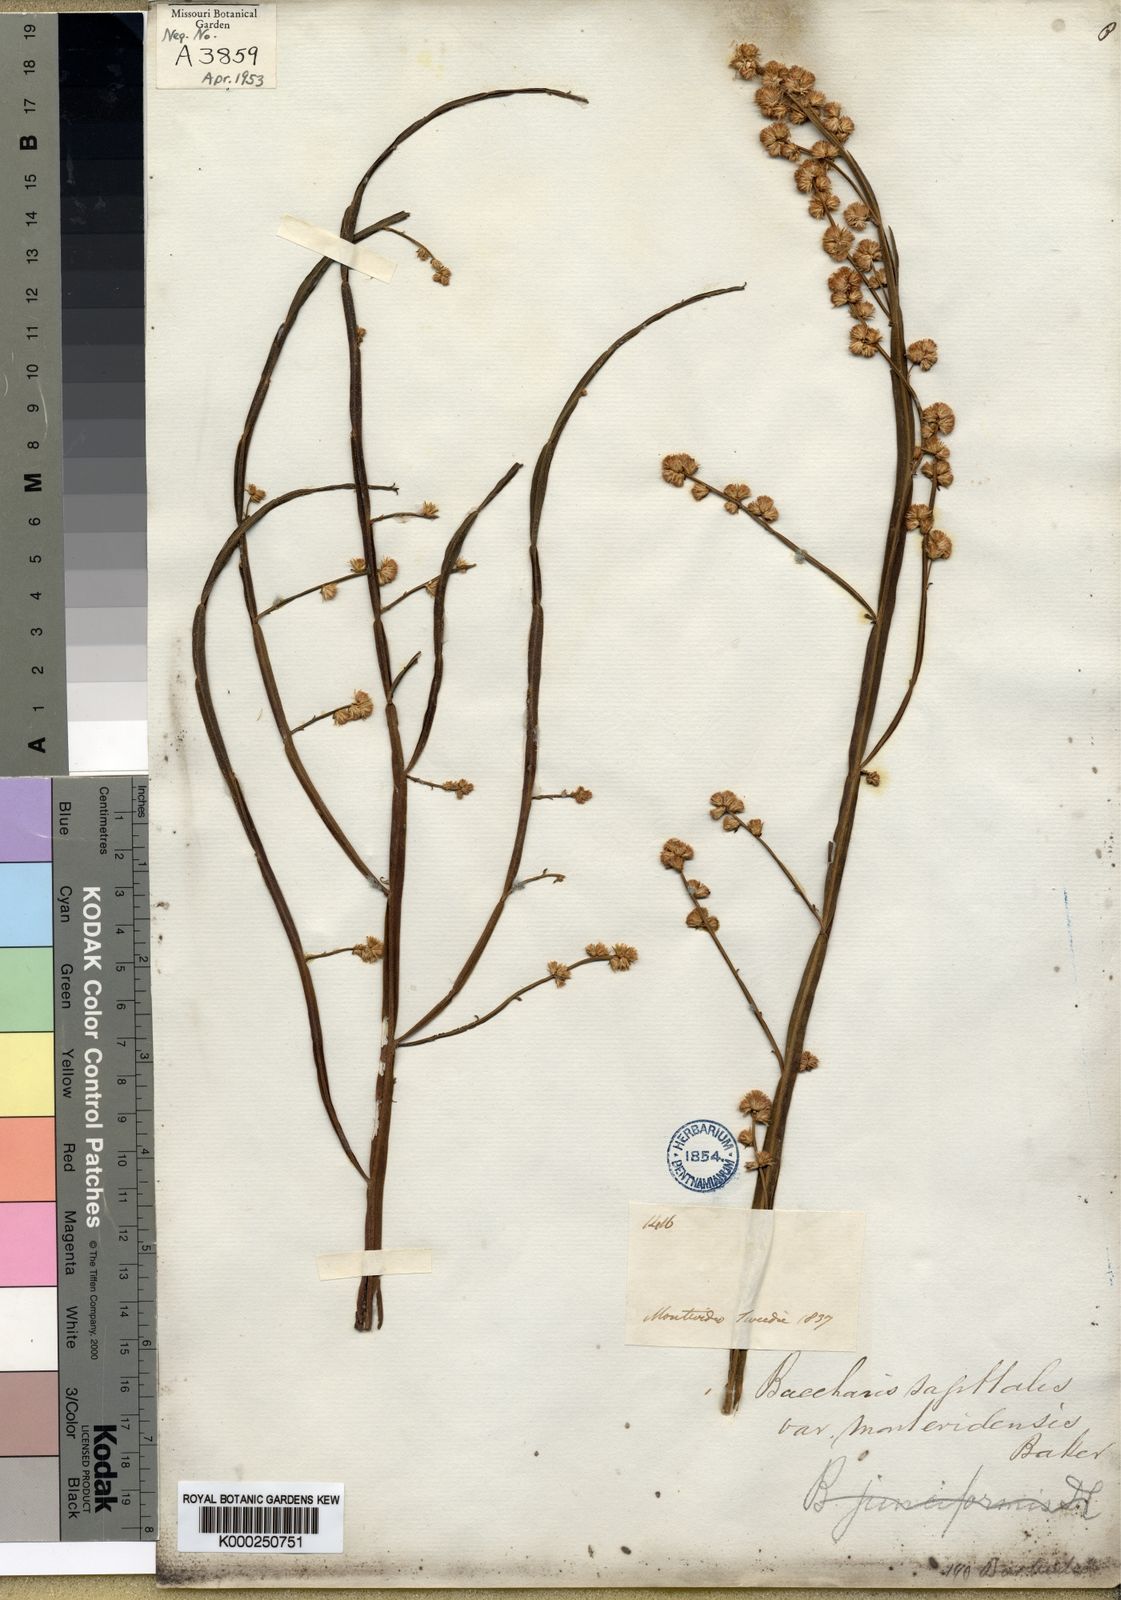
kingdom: Plantae
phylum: Tracheophyta
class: Magnoliopsida
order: Asterales
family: Asteraceae
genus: Baccharis
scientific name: Baccharis subtropicalis
